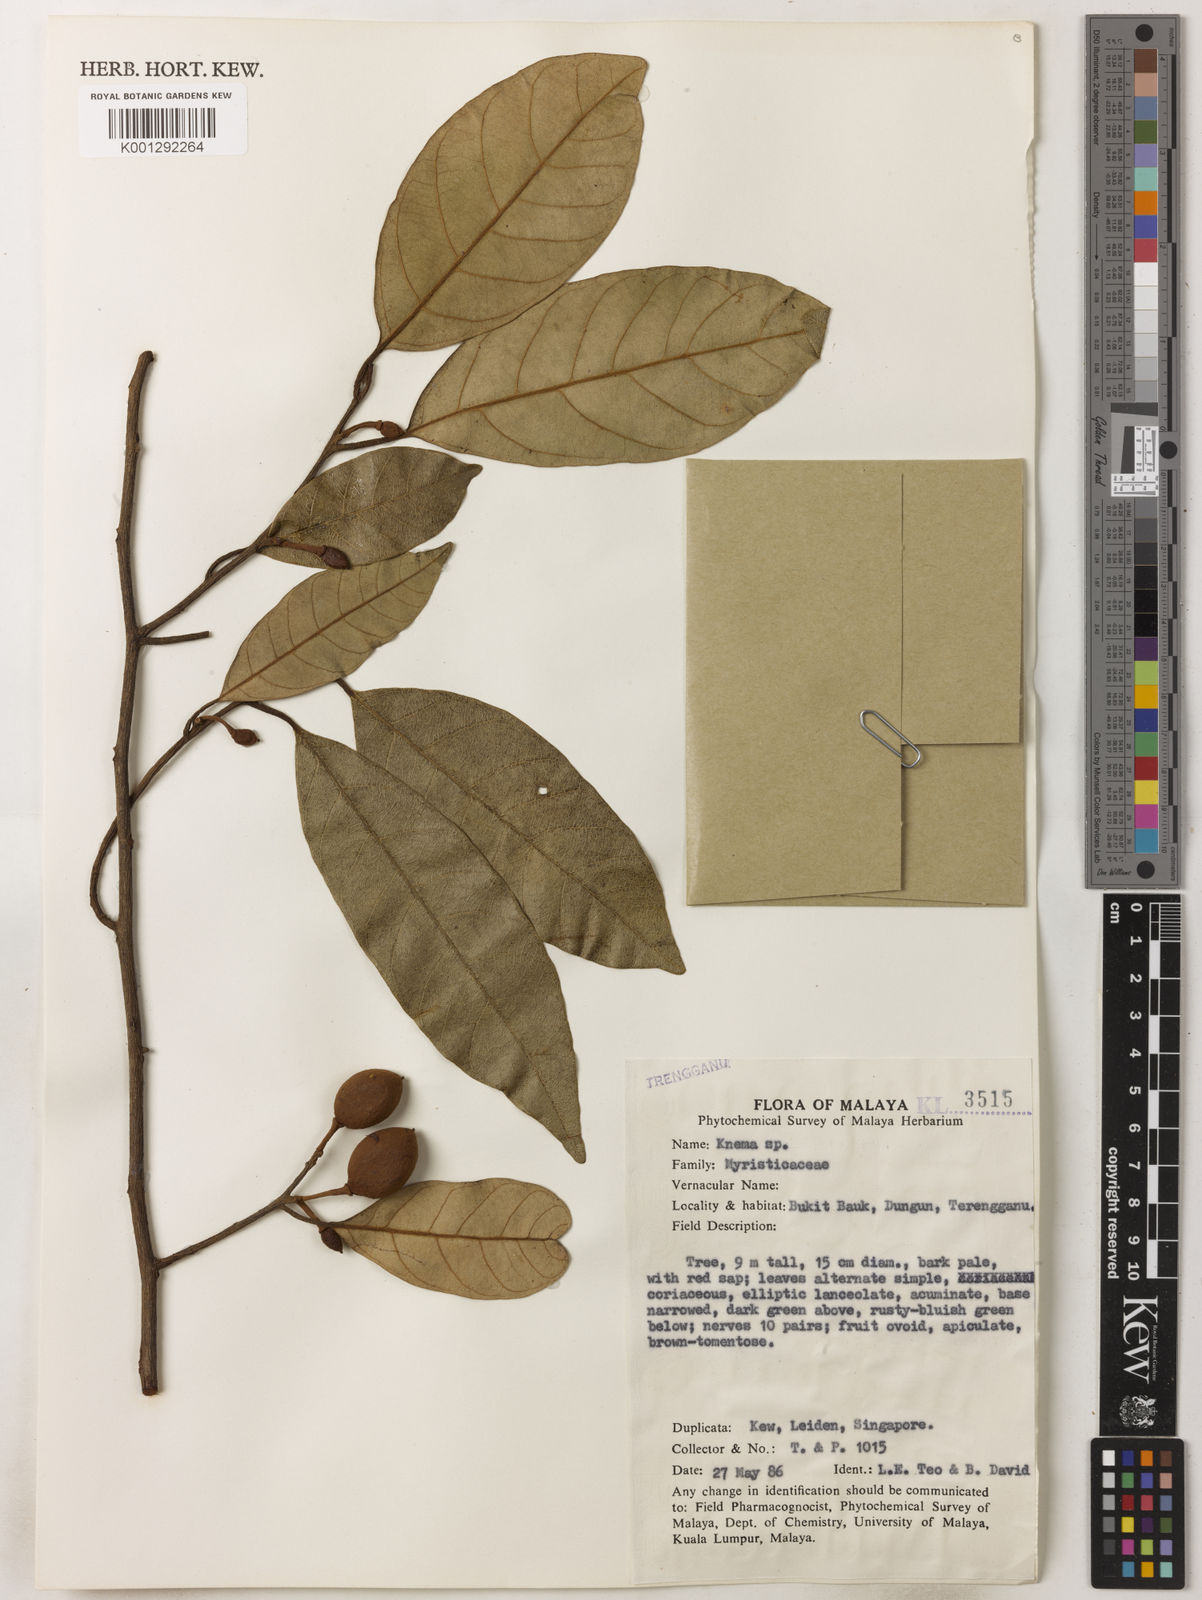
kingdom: Plantae
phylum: Tracheophyta
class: Magnoliopsida
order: Magnoliales
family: Myristicaceae
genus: Knema
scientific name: Knema
